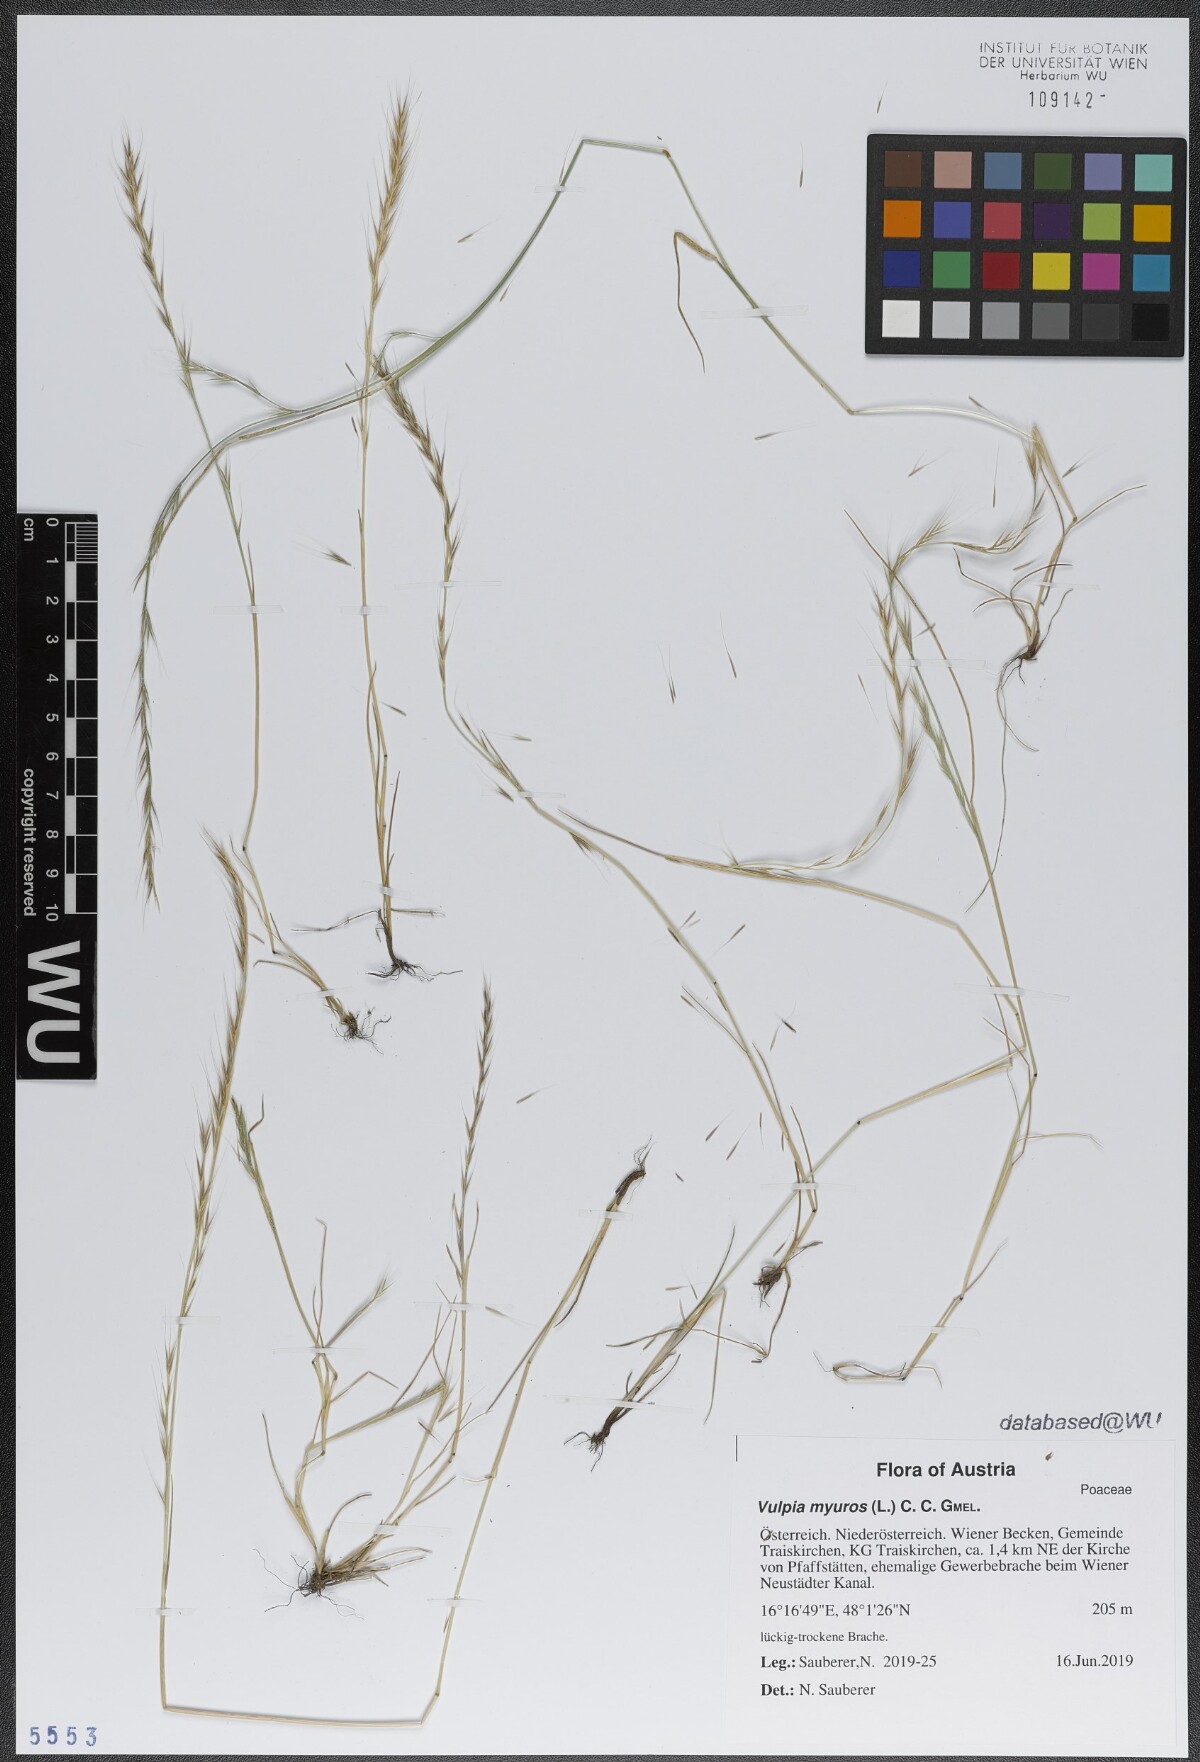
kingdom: Plantae
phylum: Tracheophyta
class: Liliopsida
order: Poales
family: Poaceae
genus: Festuca
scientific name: Festuca myuros
